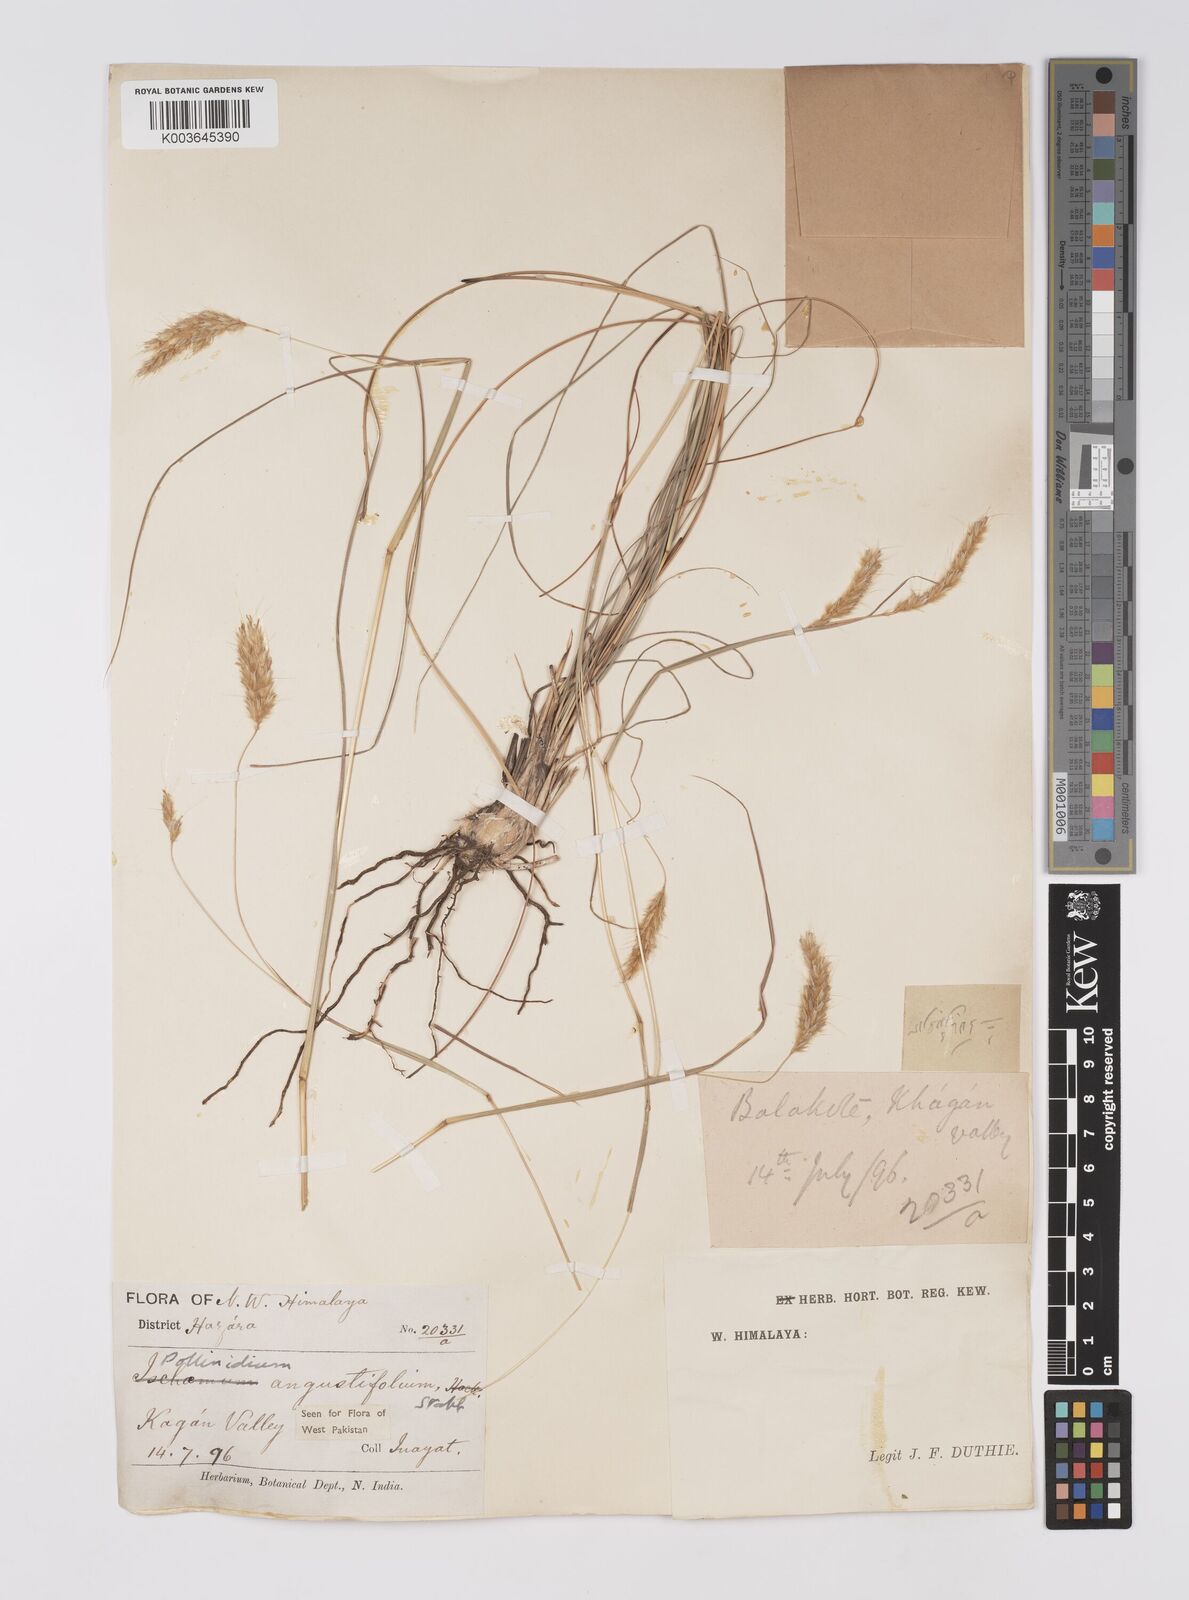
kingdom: Plantae
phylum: Tracheophyta
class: Liliopsida
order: Poales
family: Poaceae
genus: Eulaliopsis
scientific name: Eulaliopsis binata
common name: Baib grass
